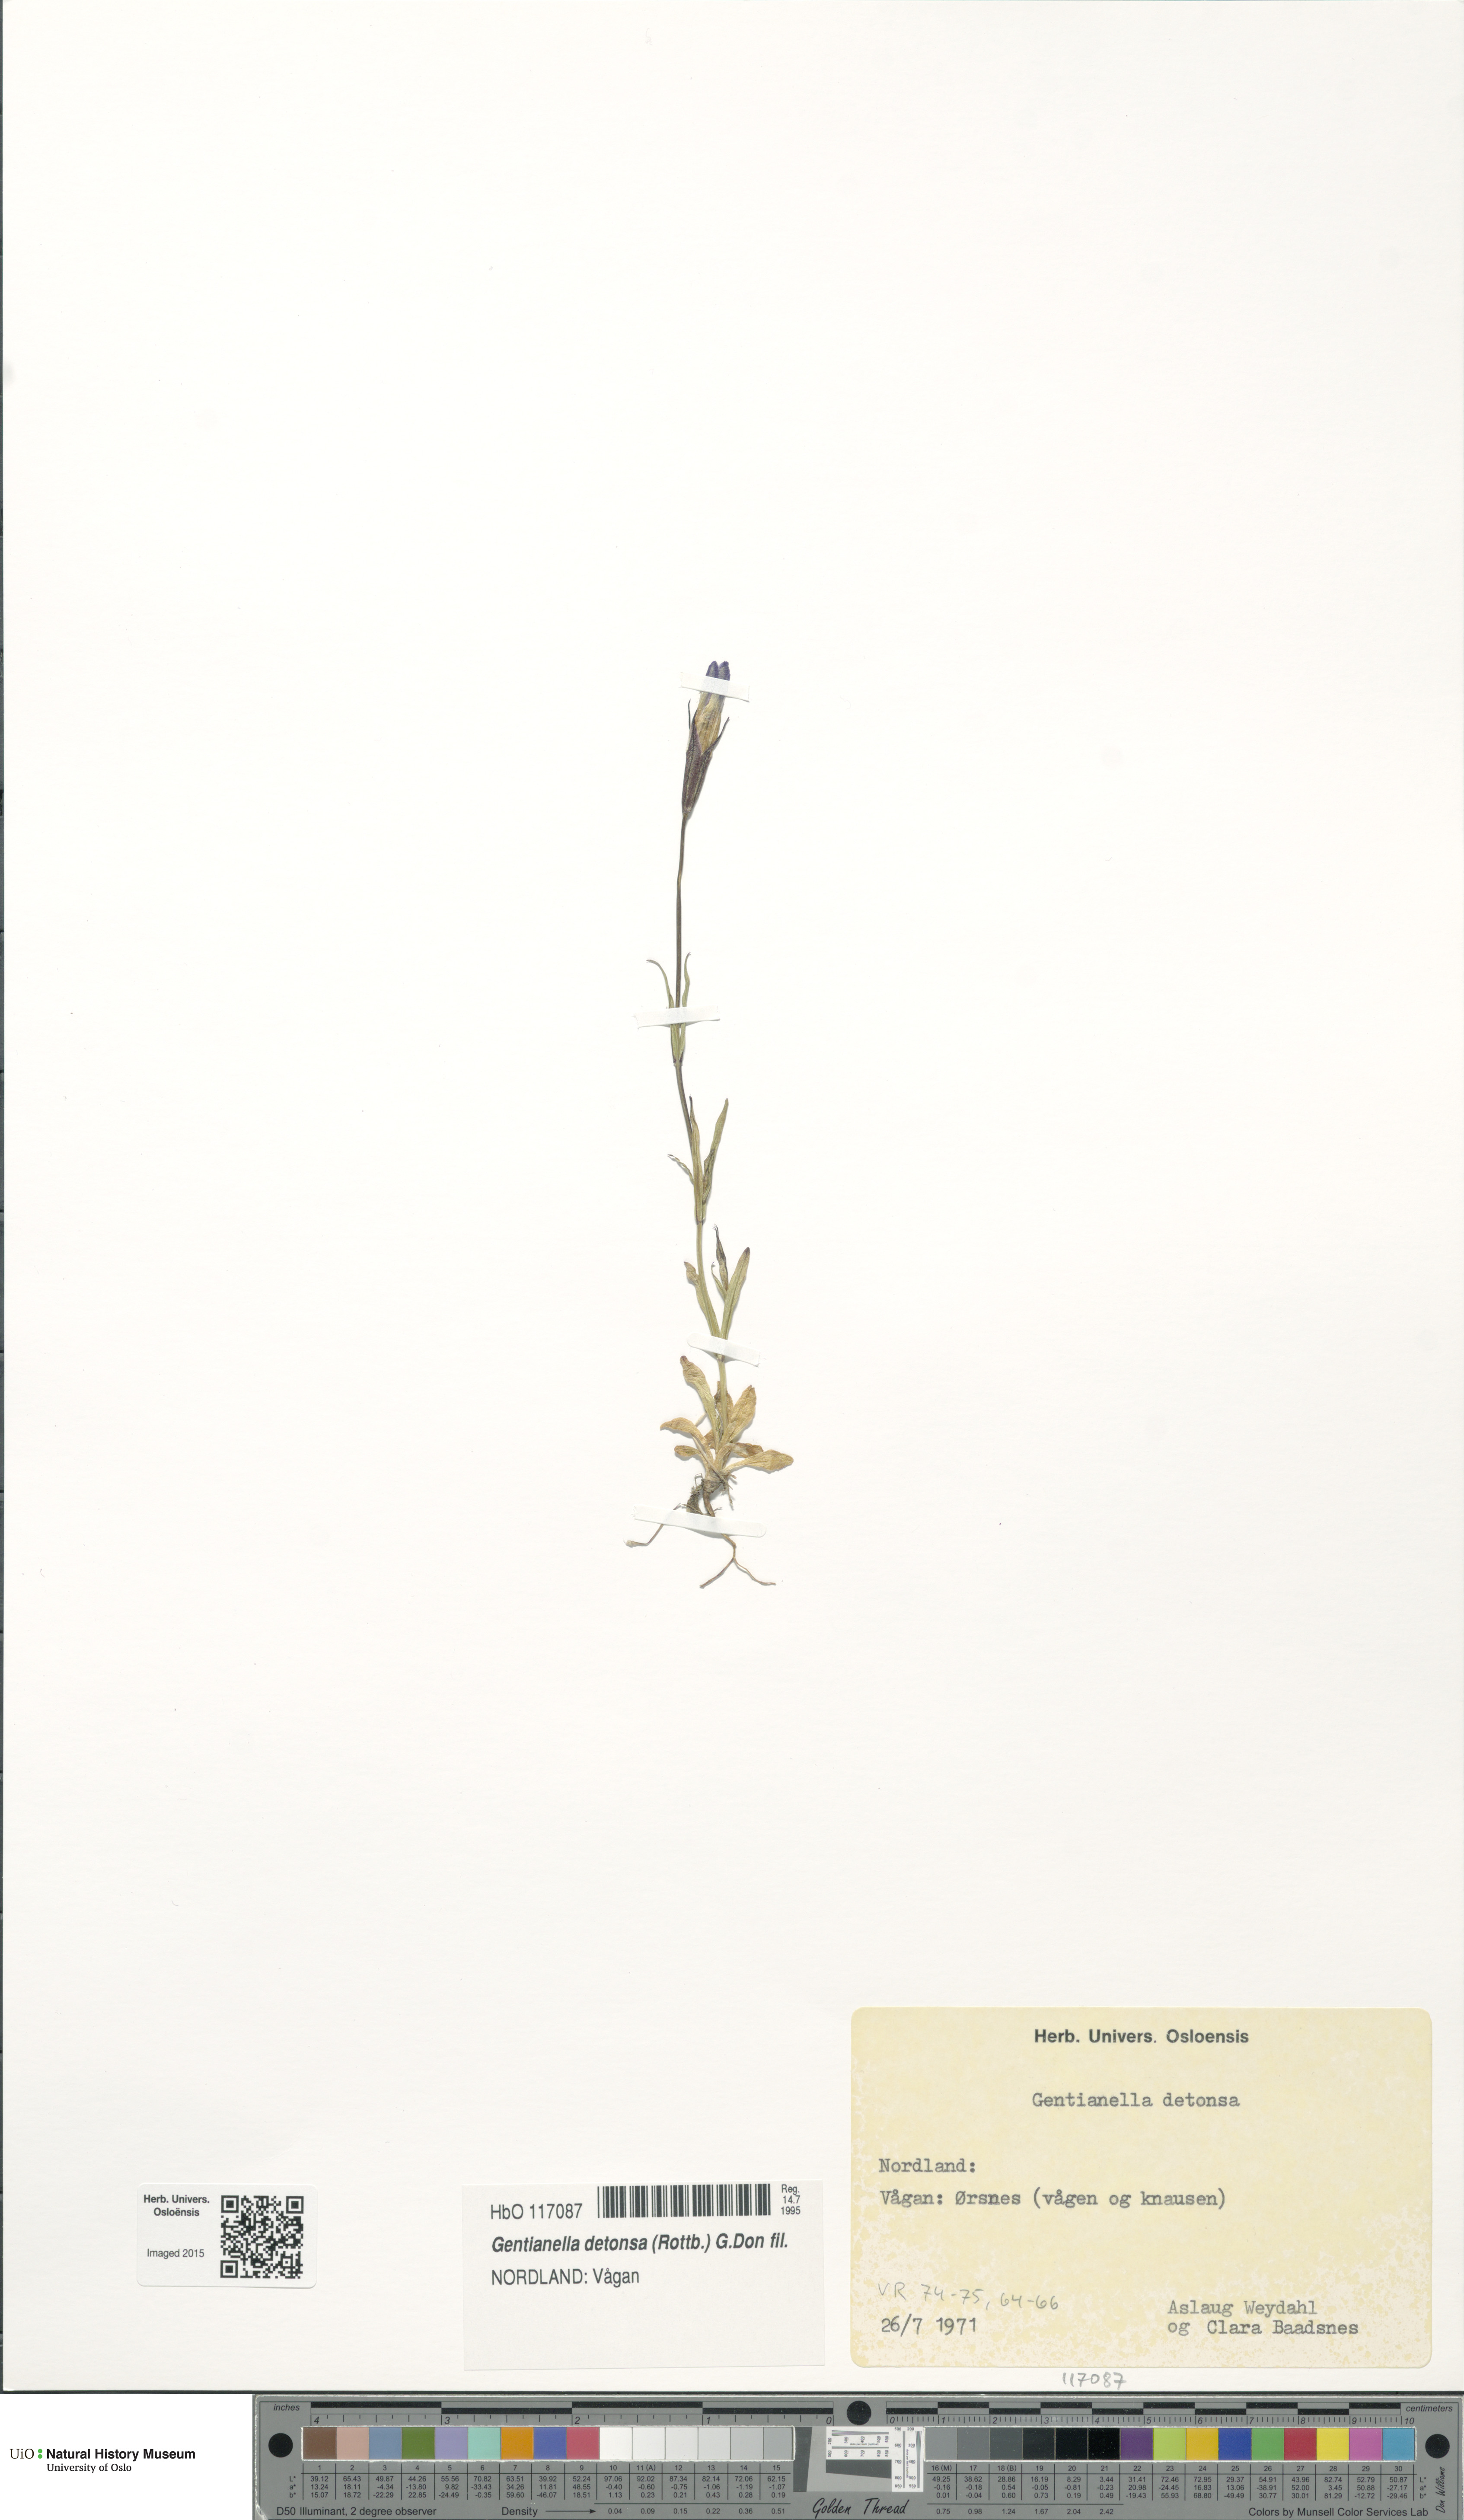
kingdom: Plantae
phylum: Tracheophyta
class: Magnoliopsida
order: Gentianales
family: Gentianaceae
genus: Gentianopsis
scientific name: Gentianopsis detonsa
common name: Fringed-gentian
